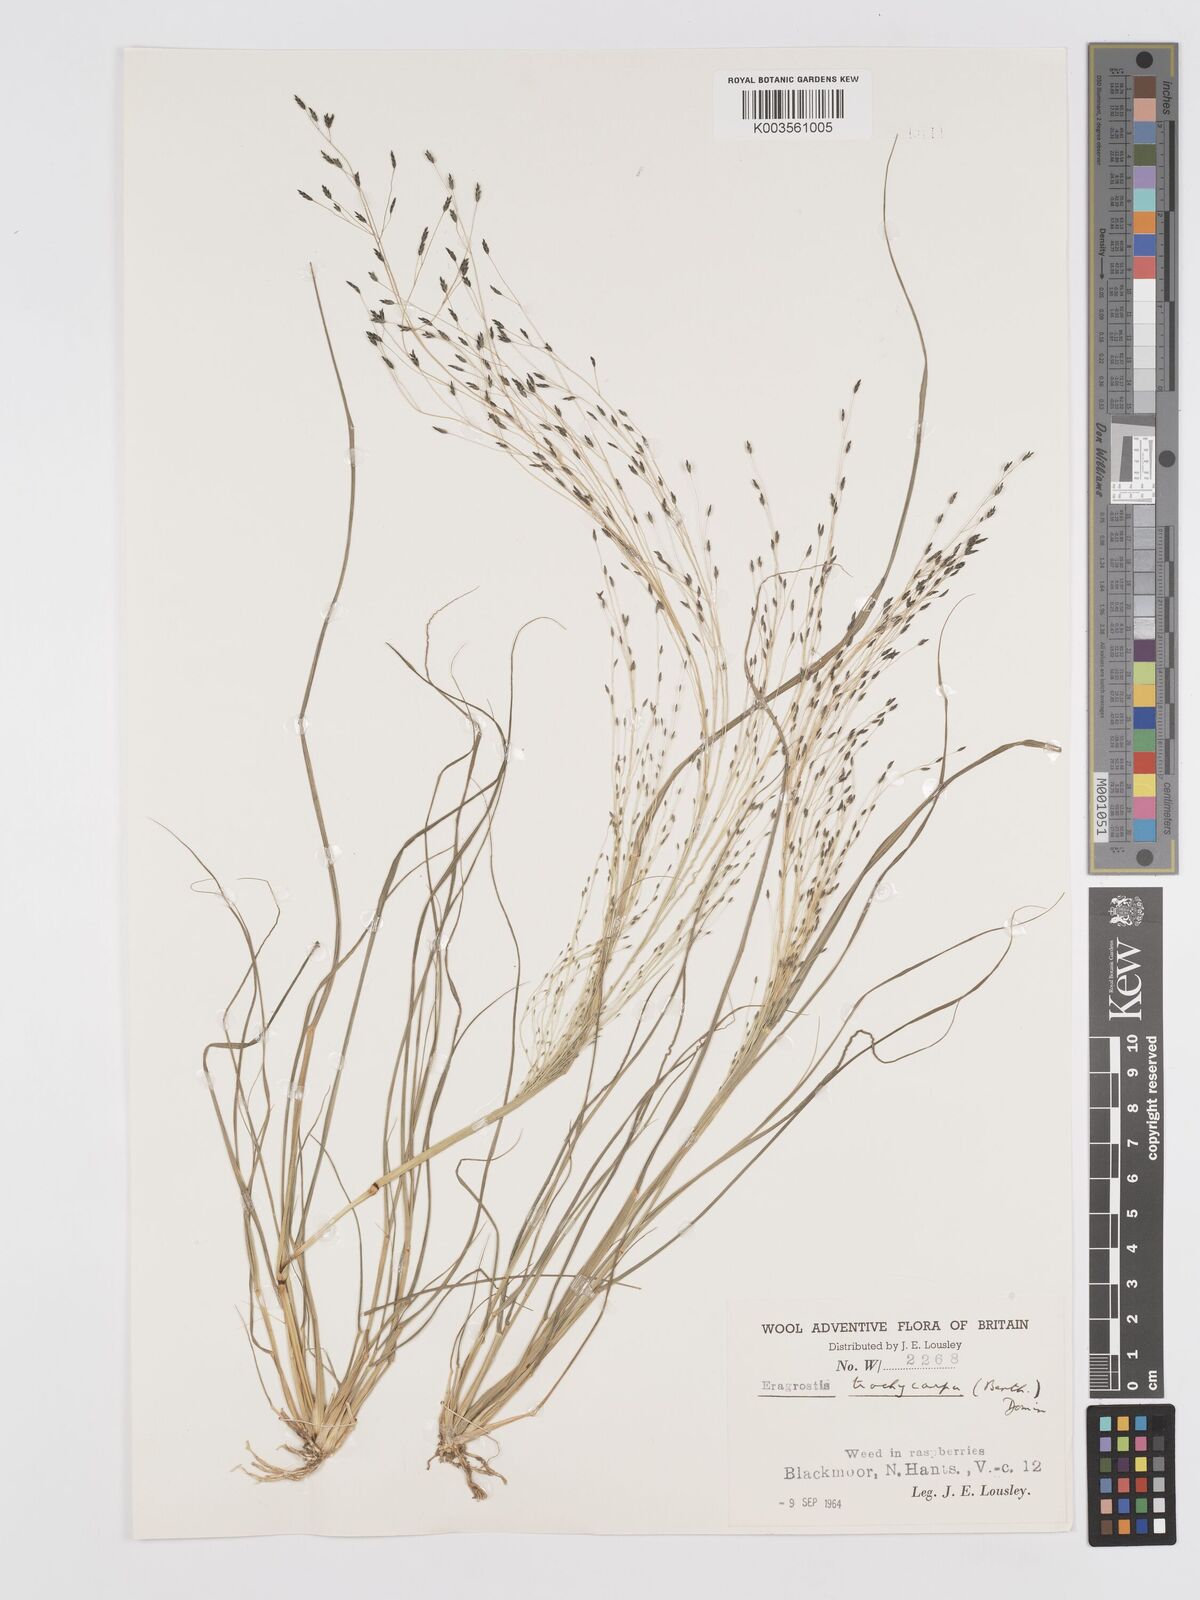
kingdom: Plantae
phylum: Tracheophyta
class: Liliopsida
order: Poales
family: Poaceae
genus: Eragrostis
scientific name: Eragrostis
